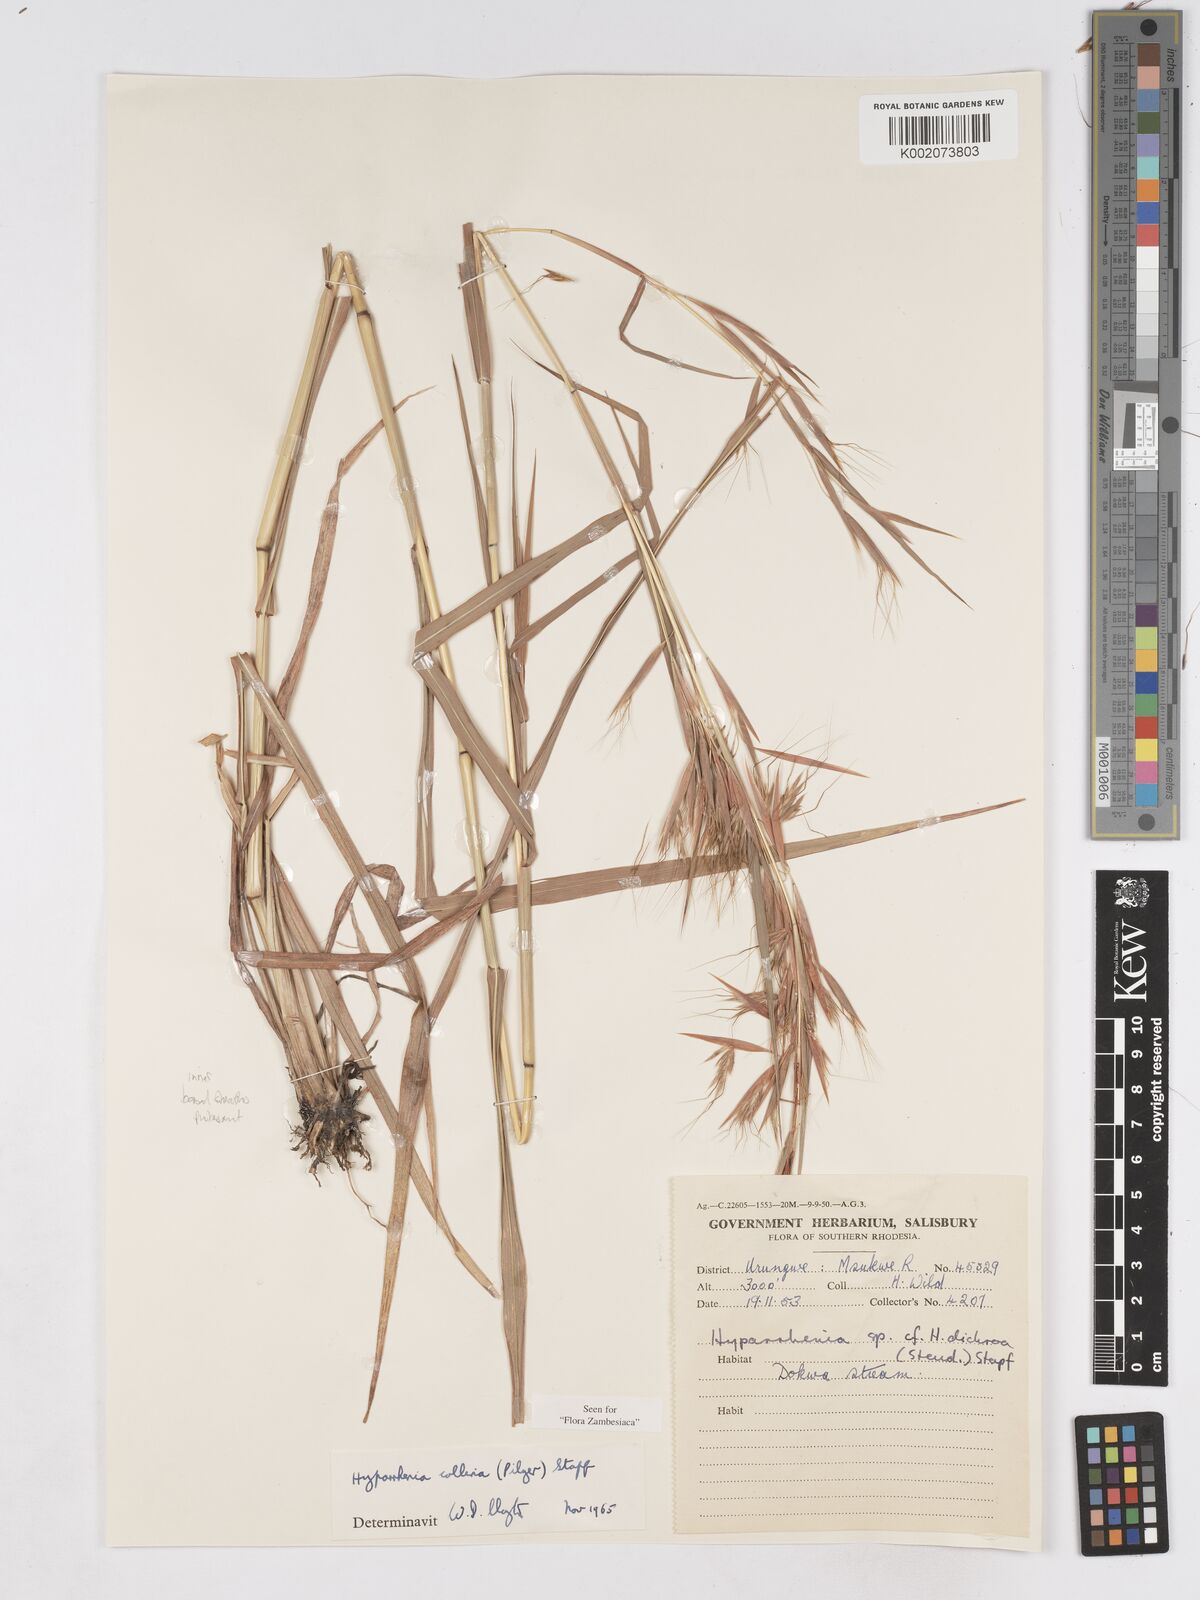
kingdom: Plantae
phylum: Tracheophyta
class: Liliopsida
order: Poales
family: Poaceae
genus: Hyparrhenia
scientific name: Hyparrhenia collina
